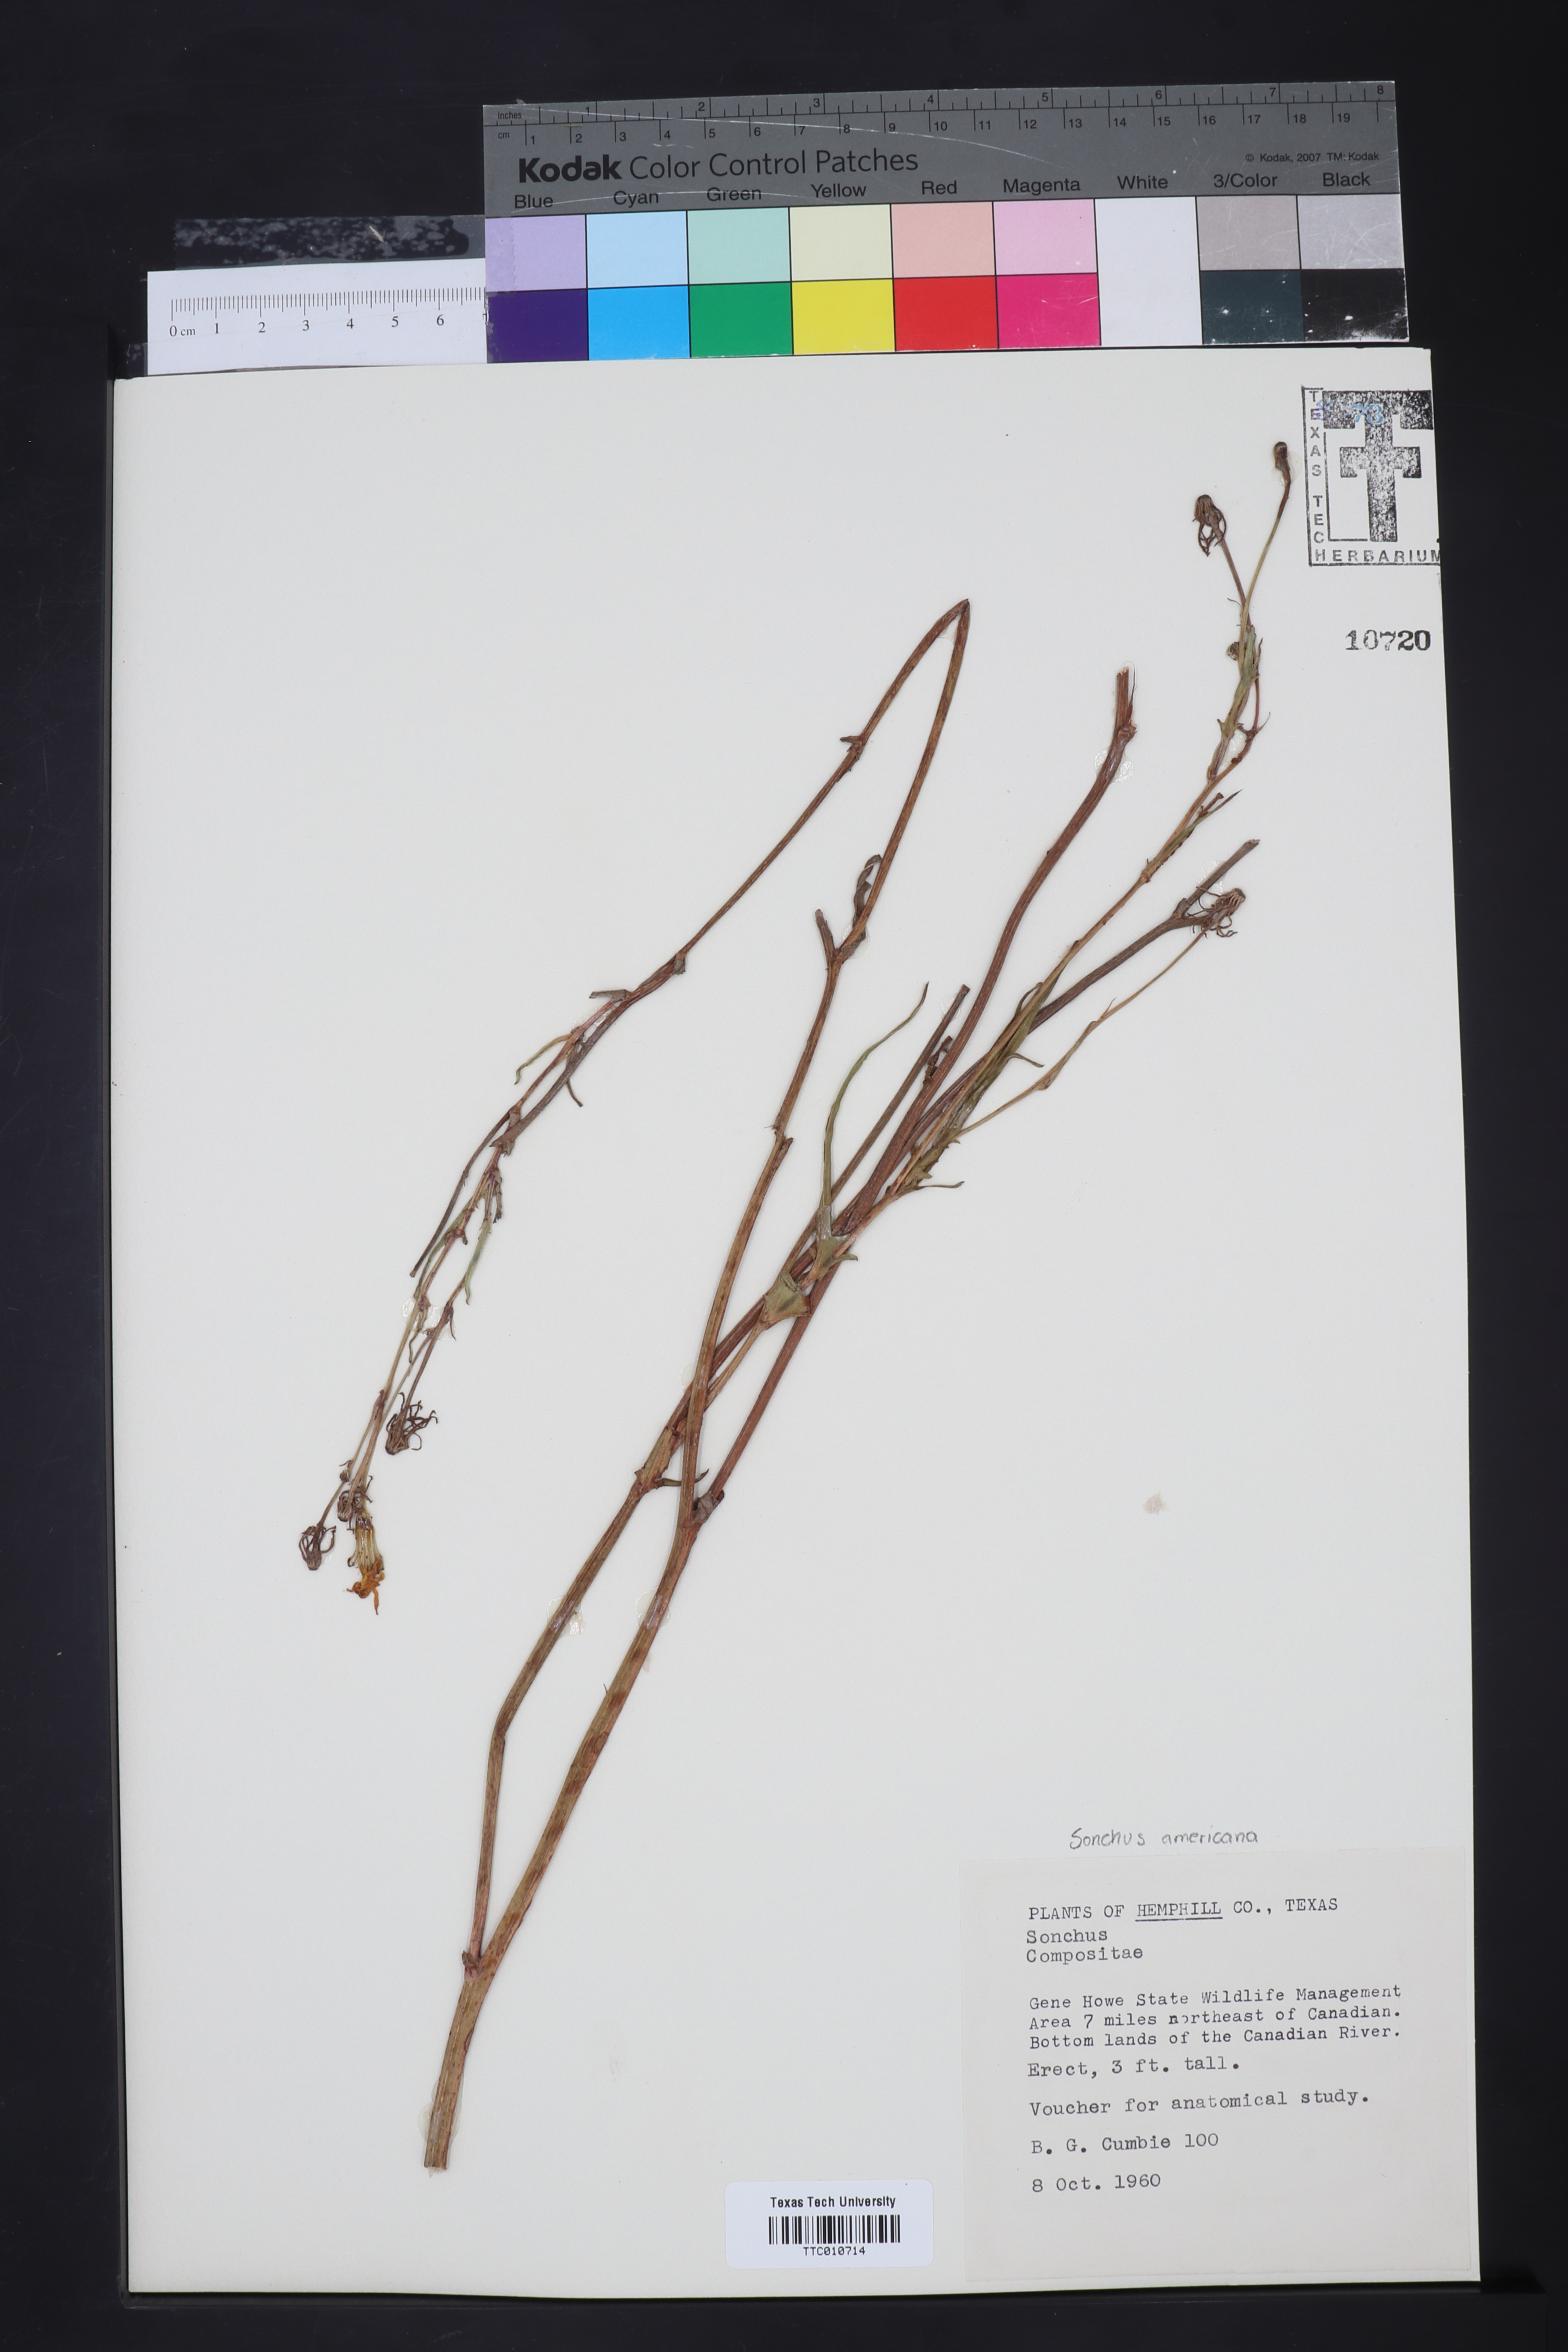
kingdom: Plantae
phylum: Tracheophyta
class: Magnoliopsida
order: Asterales
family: Asteraceae
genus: Sonchus
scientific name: Sonchus
